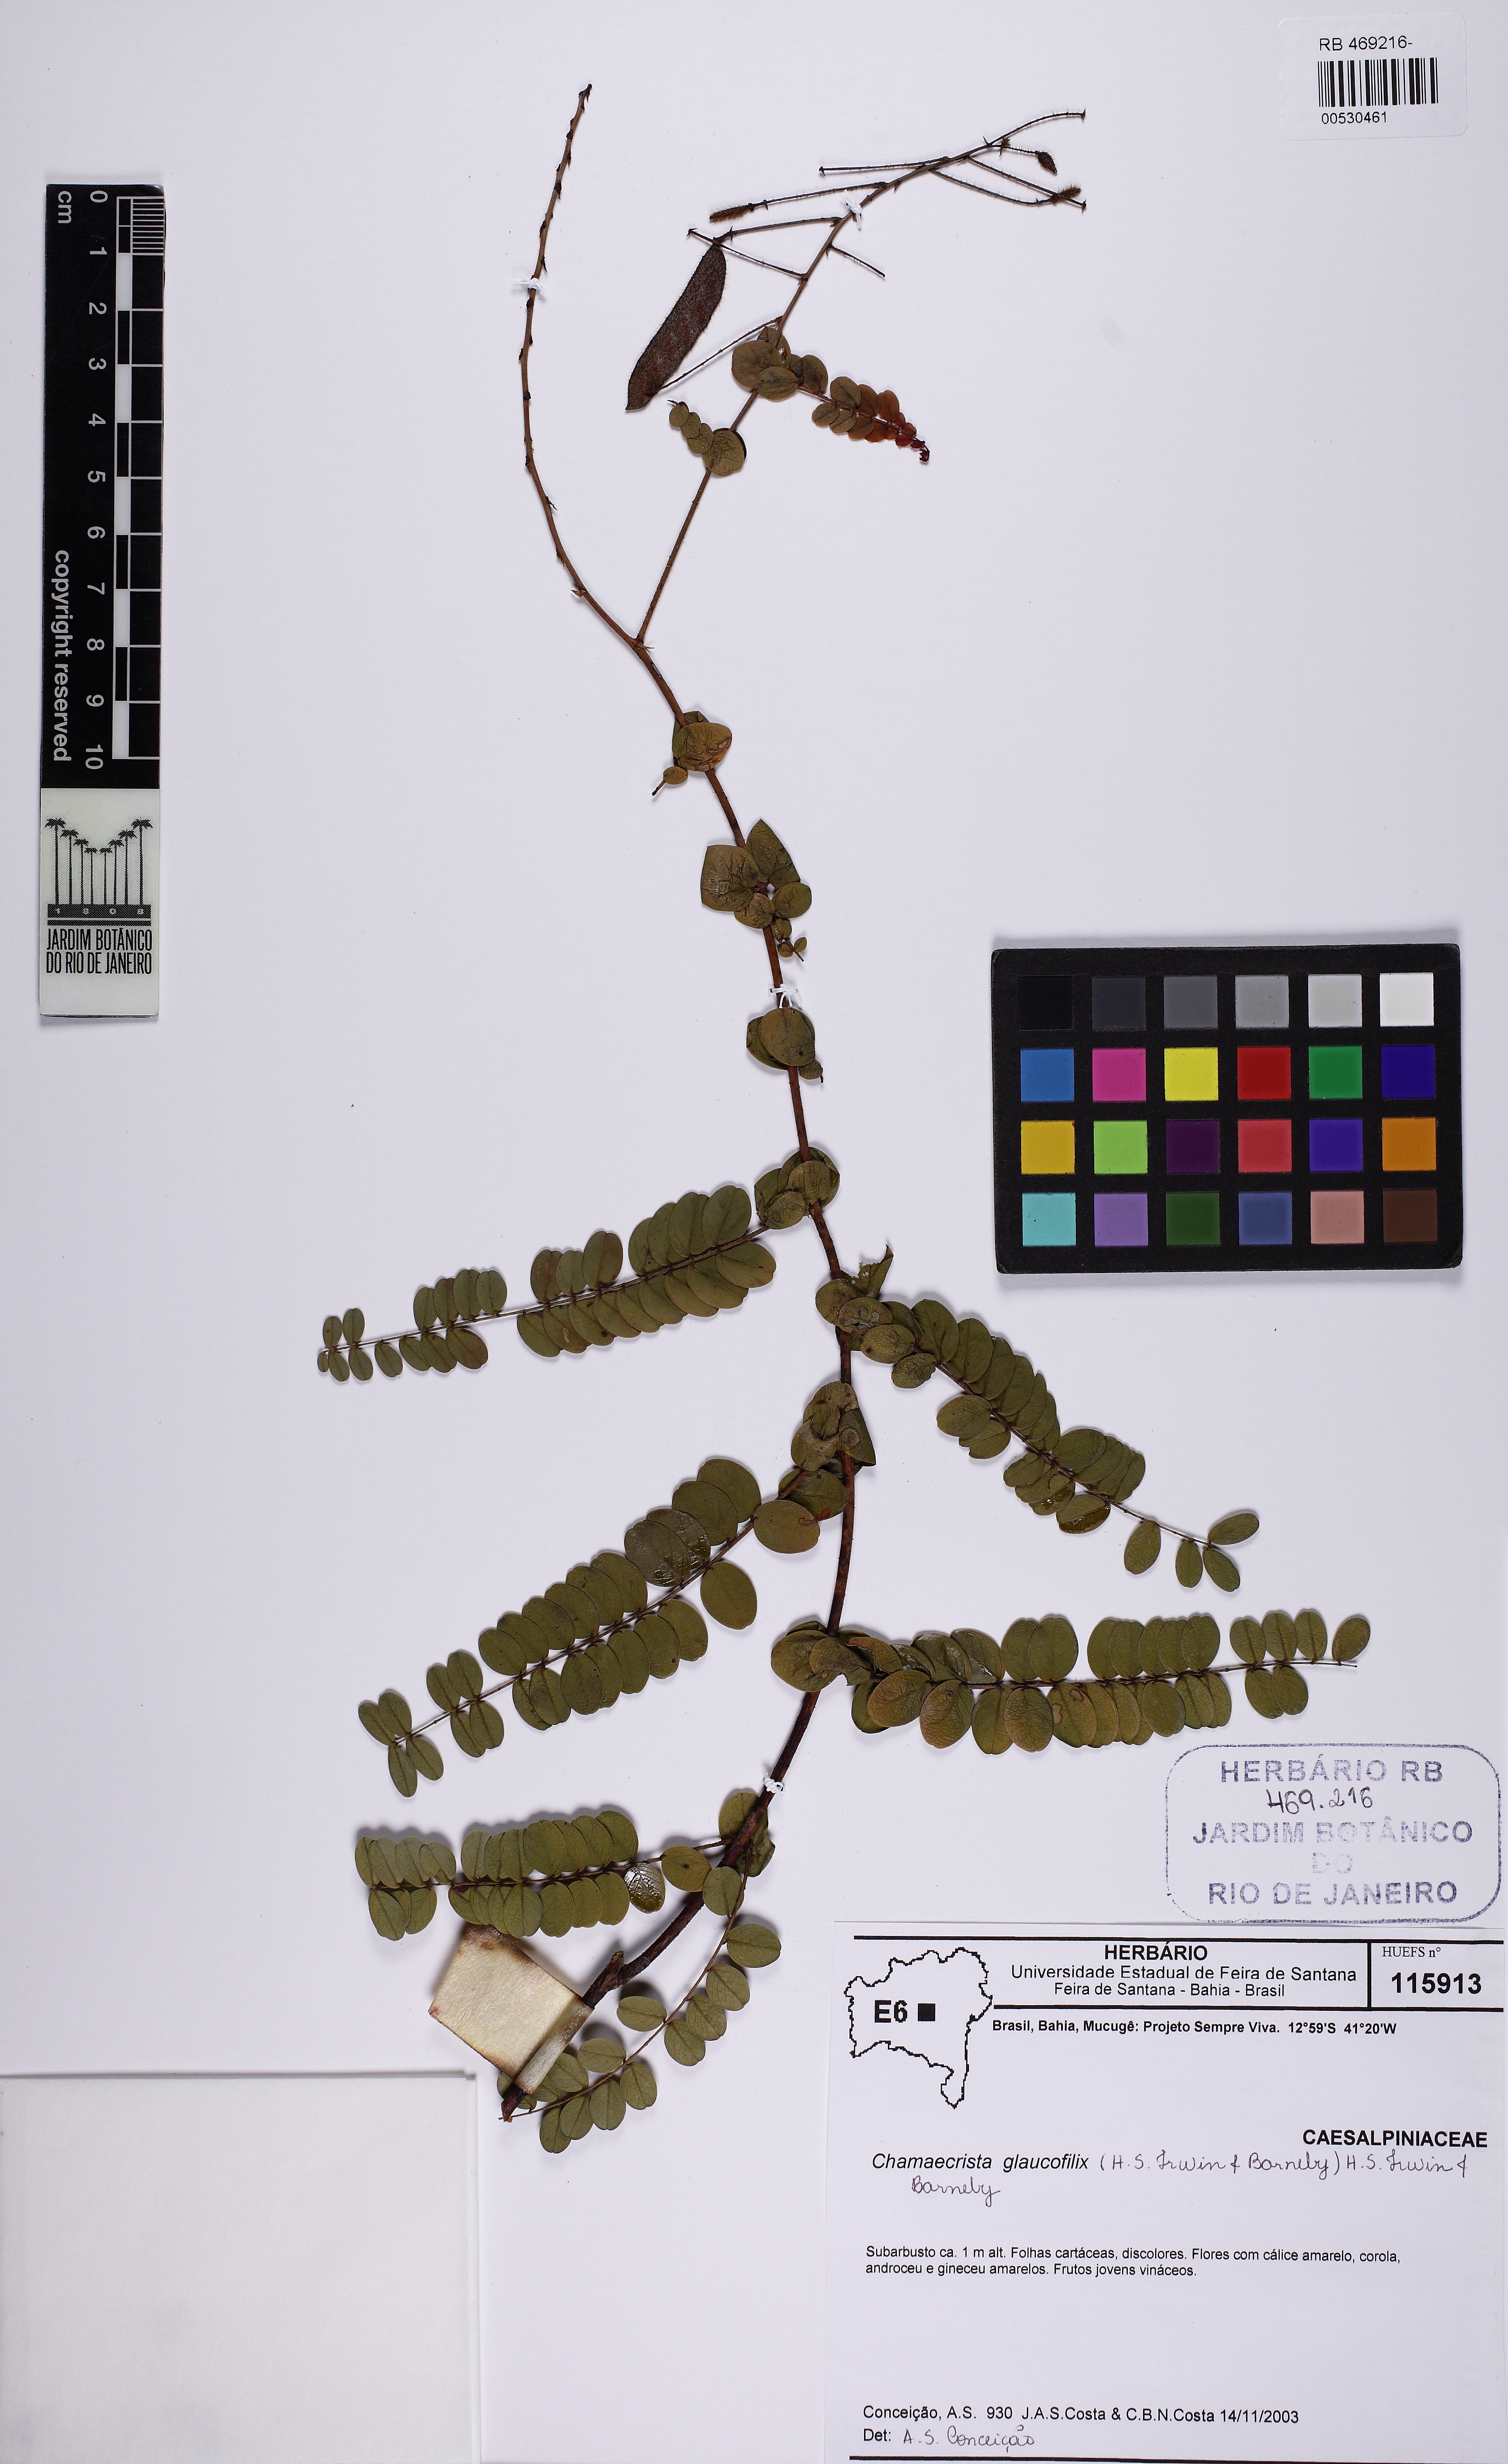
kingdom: Plantae
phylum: Tracheophyta
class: Magnoliopsida
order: Fabales
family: Fabaceae
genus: Chamaecrista
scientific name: Chamaecrista glaucofilix
